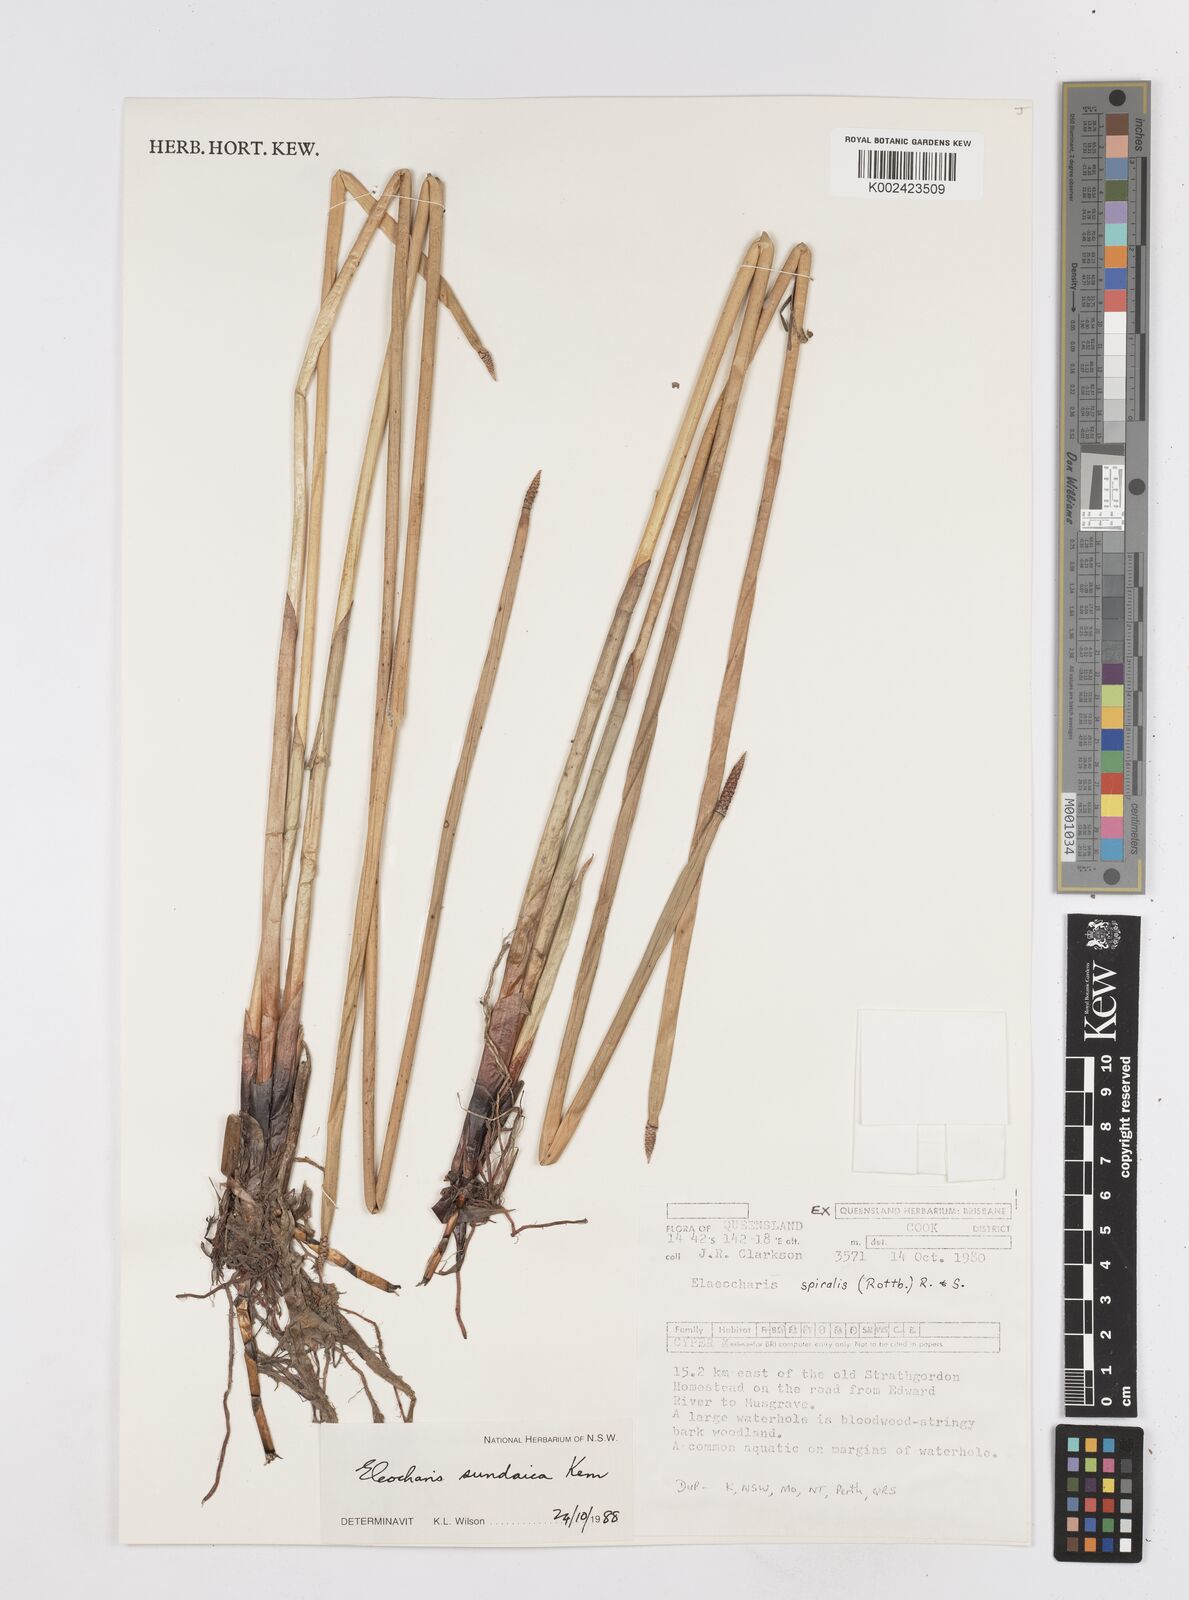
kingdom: Plantae
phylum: Tracheophyta
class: Liliopsida
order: Poales
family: Cyperaceae
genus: Eleocharis
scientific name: Eleocharis sundaica
